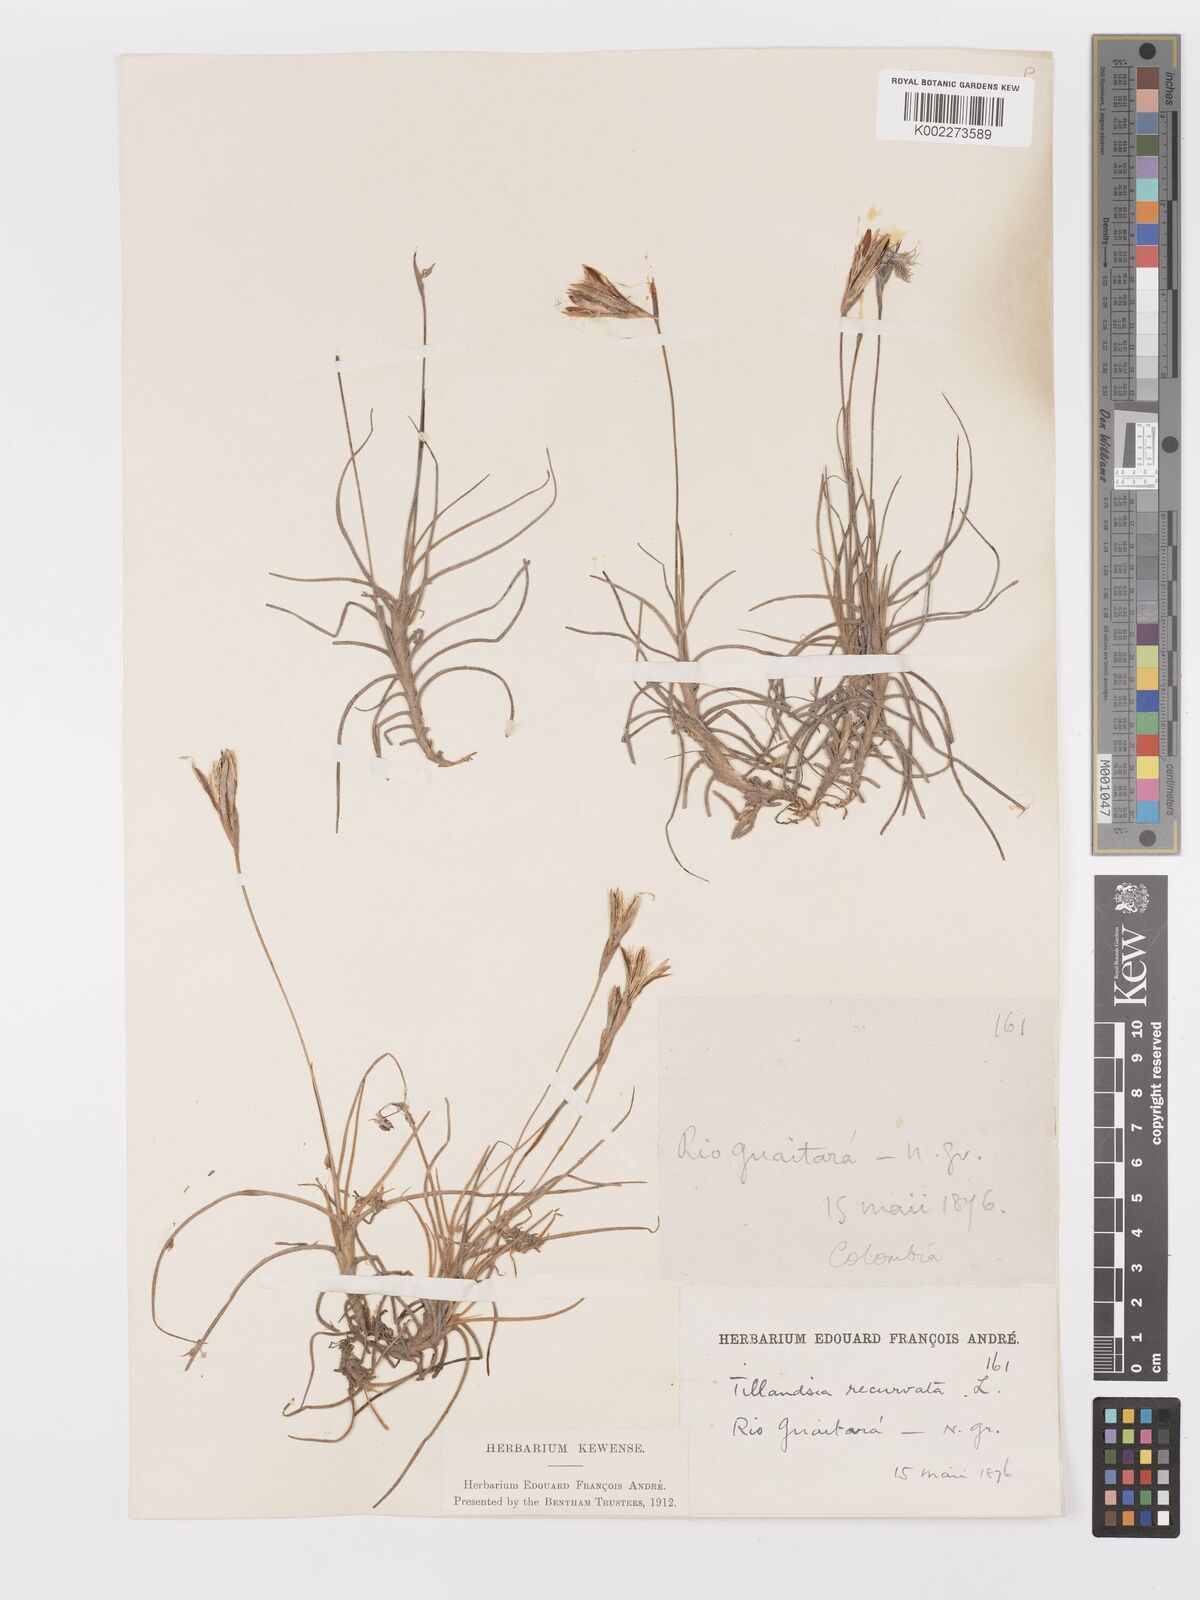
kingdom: Plantae
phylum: Tracheophyta
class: Liliopsida
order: Poales
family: Bromeliaceae
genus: Tillandsia
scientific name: Tillandsia recurvata
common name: Small ballmoss
